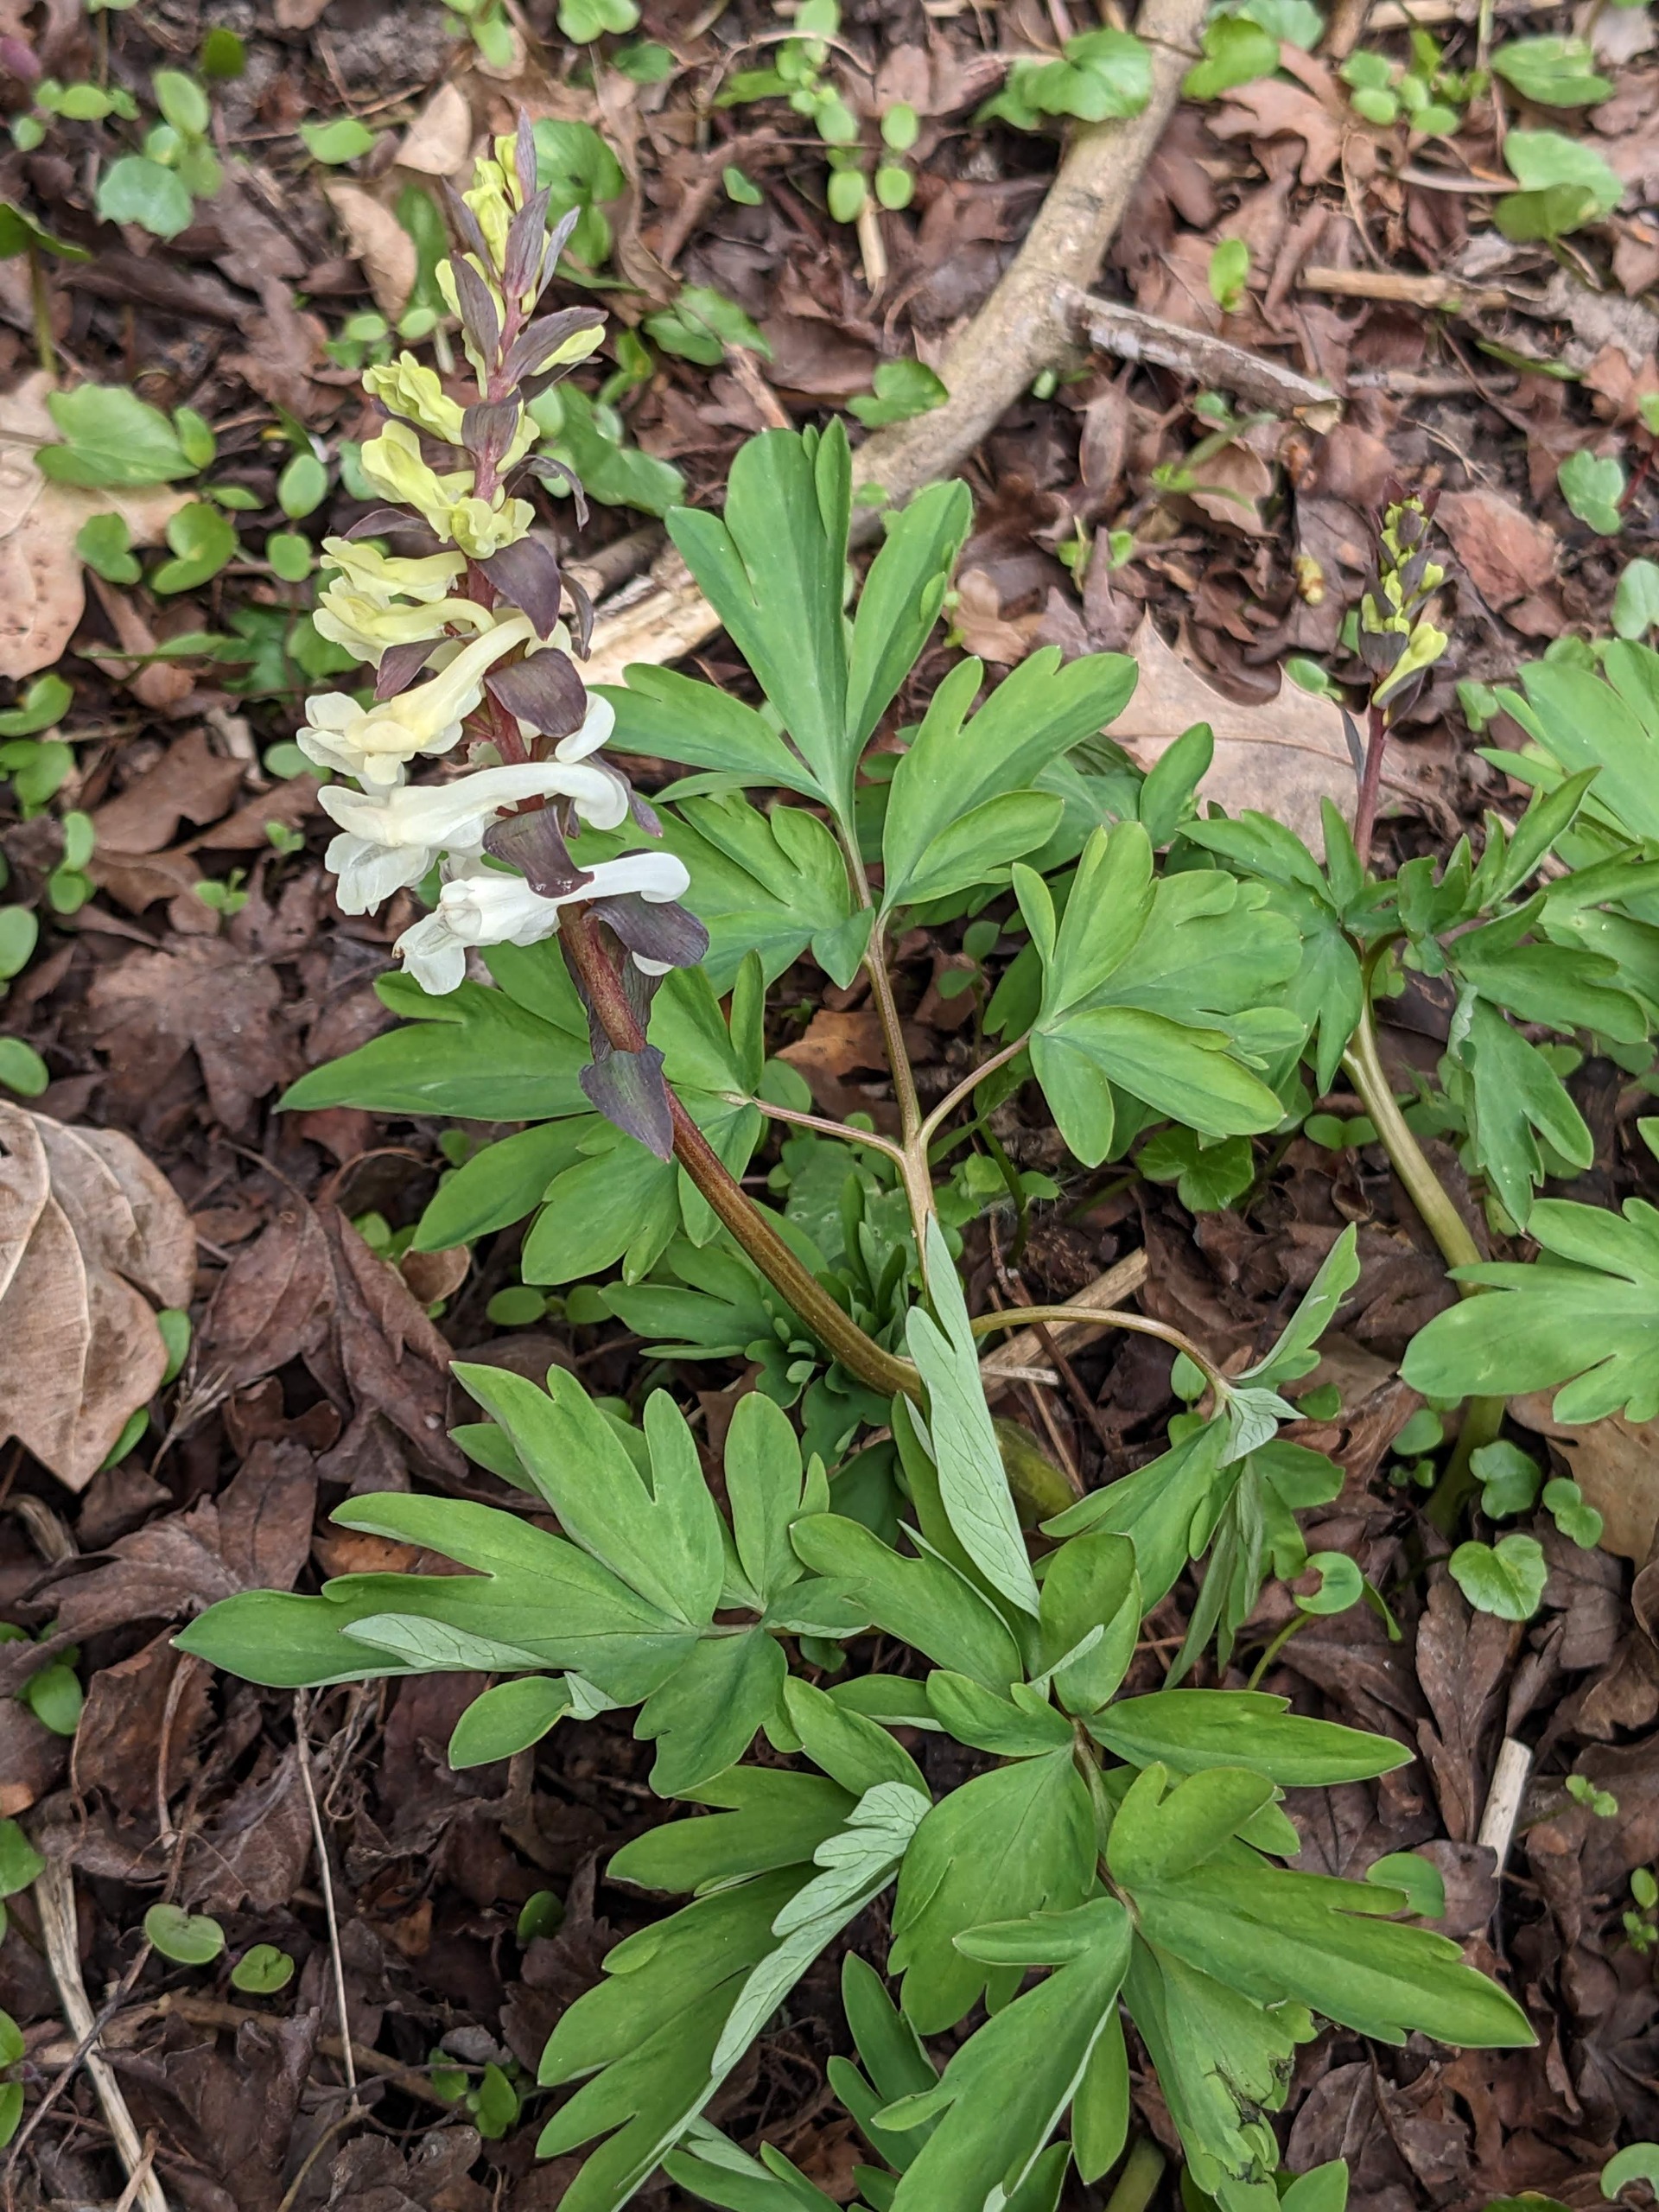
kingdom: Plantae
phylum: Tracheophyta
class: Magnoliopsida
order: Ranunculales
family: Papaveraceae
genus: Corydalis
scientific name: Corydalis cava
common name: Hulrodet lærkespore
